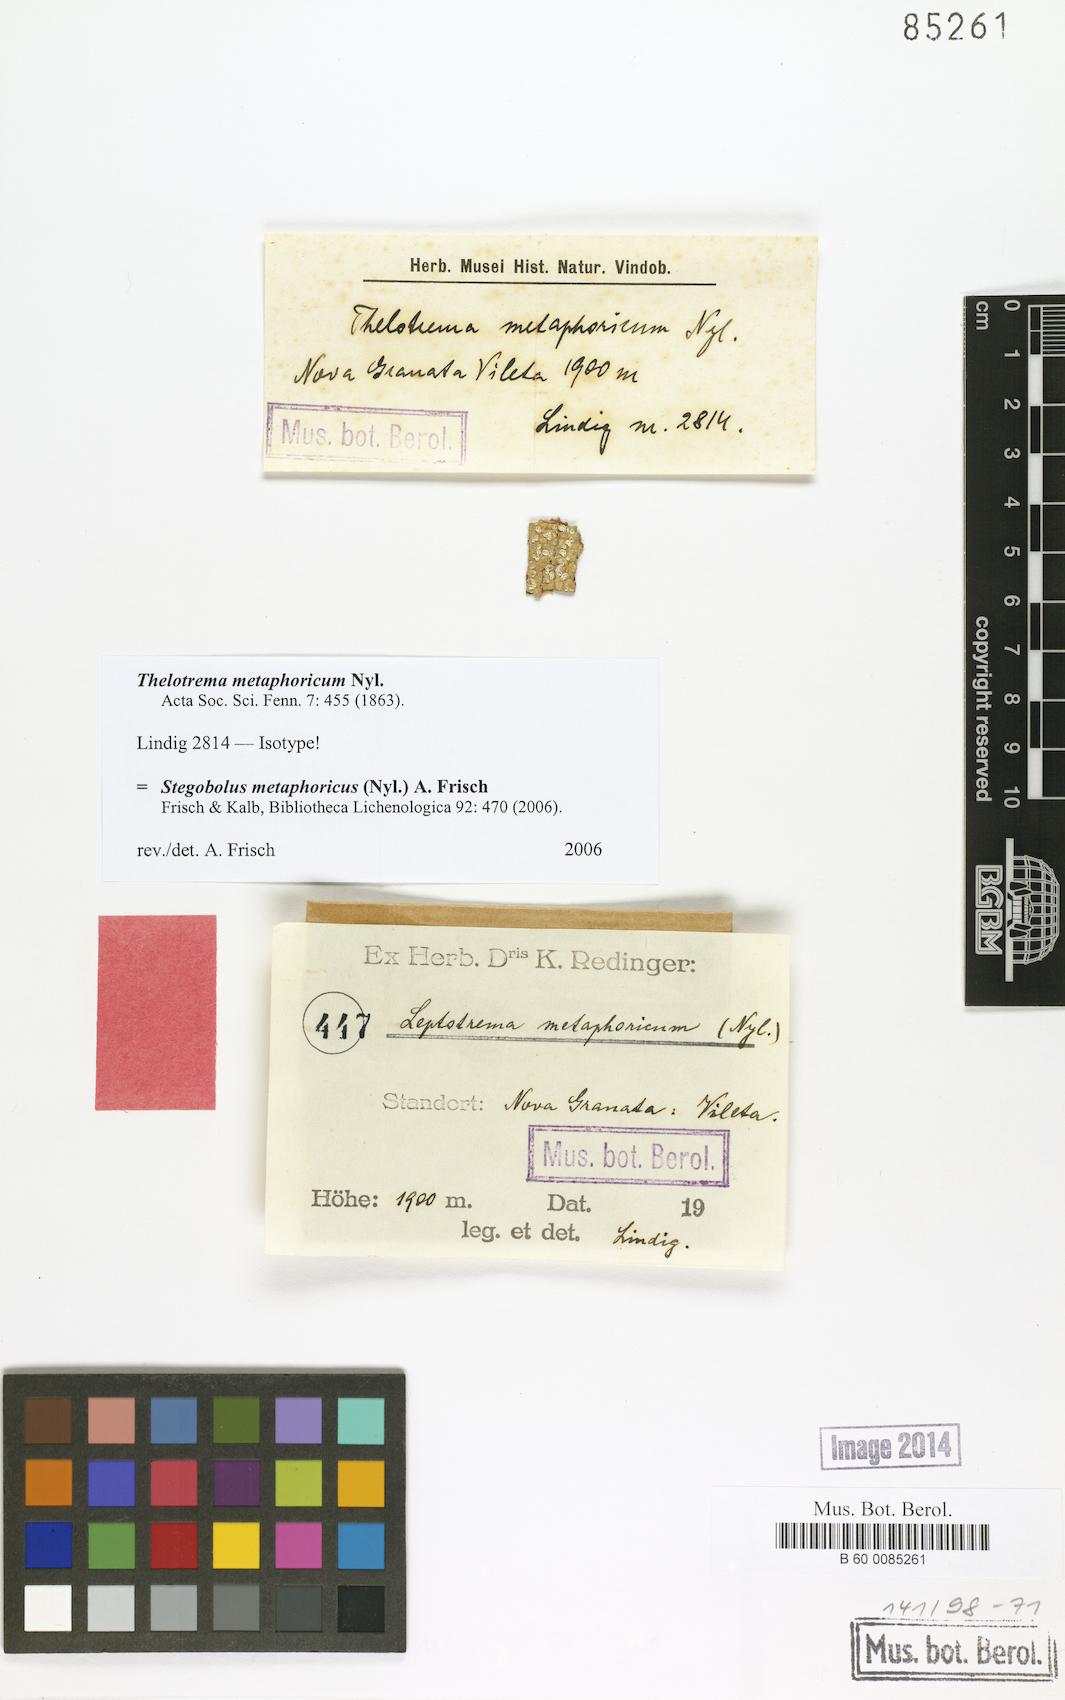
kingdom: Fungi
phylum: Ascomycota
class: Lecanoromycetes
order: Ostropales
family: Graphidaceae
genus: Stegobolus
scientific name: Stegobolus metaphoricus
